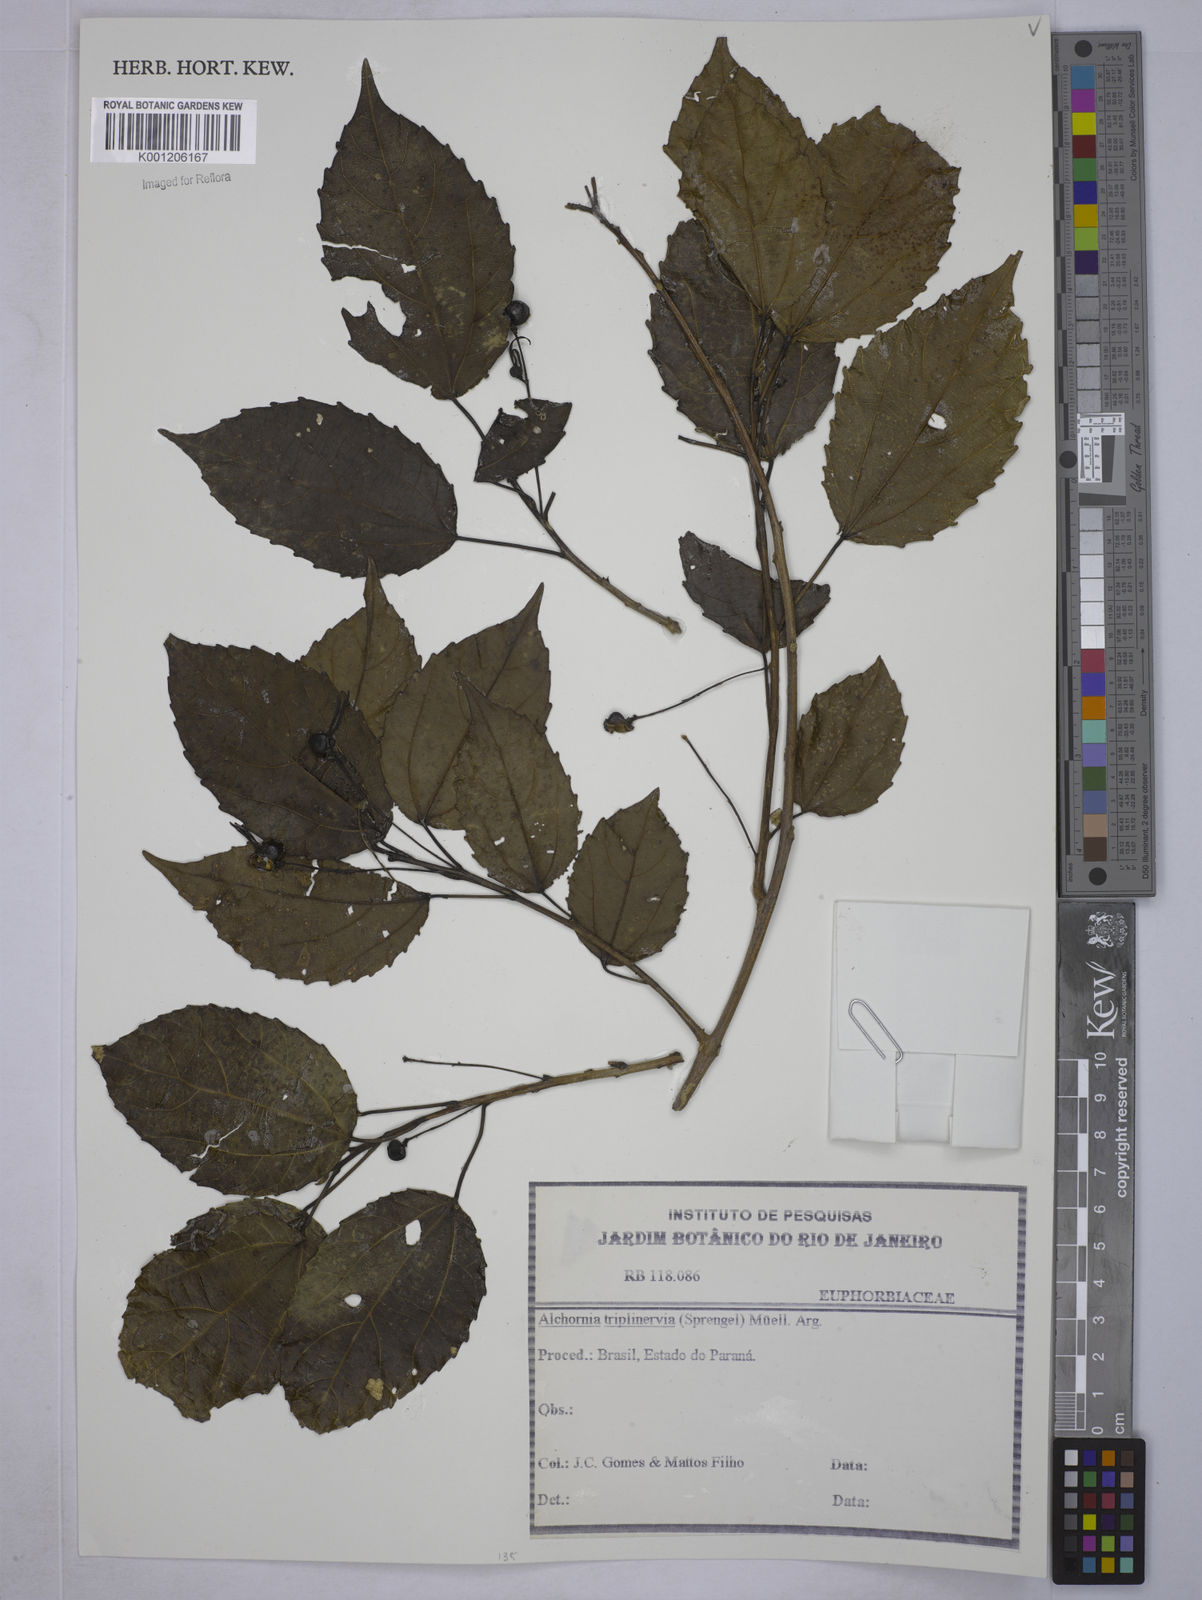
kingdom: Plantae
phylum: Tracheophyta
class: Magnoliopsida
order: Malpighiales
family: Euphorbiaceae
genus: Alchornea
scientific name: Alchornea
